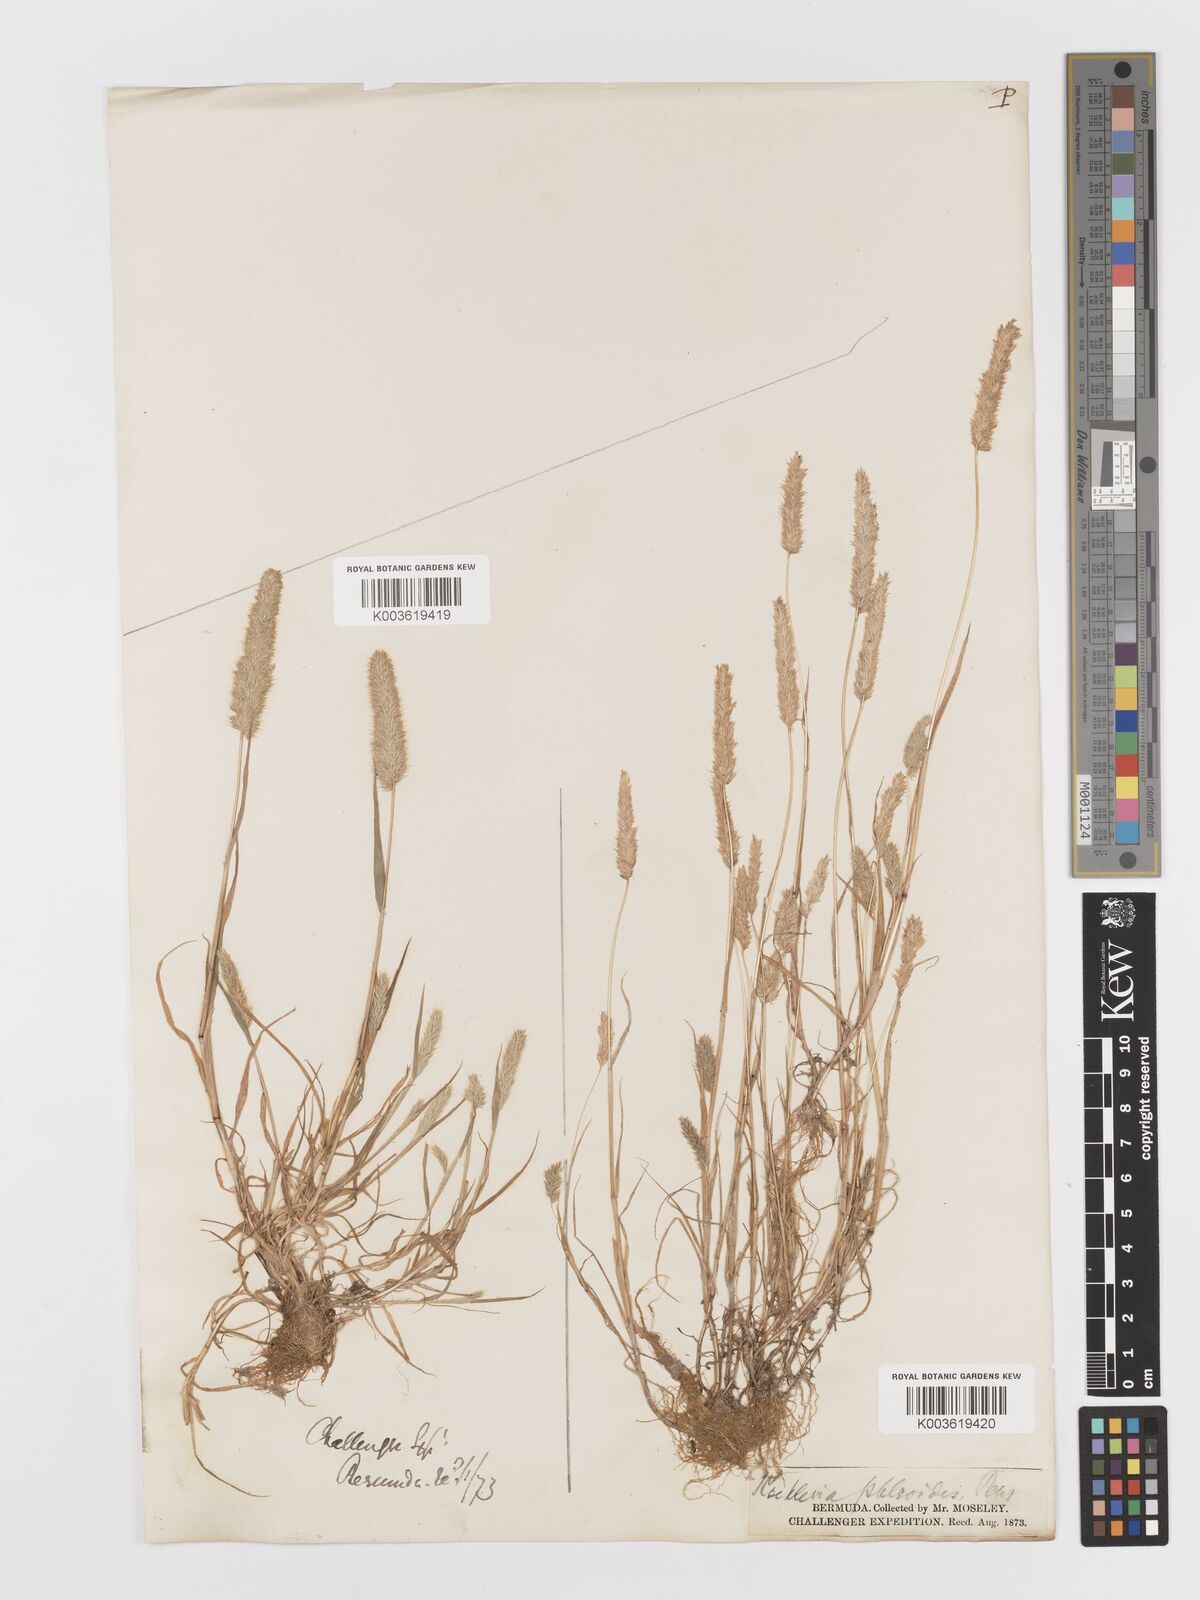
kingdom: Plantae
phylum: Tracheophyta
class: Liliopsida
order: Poales
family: Poaceae
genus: Rostraria
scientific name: Rostraria cristata
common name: Mediterranean hair-grass
